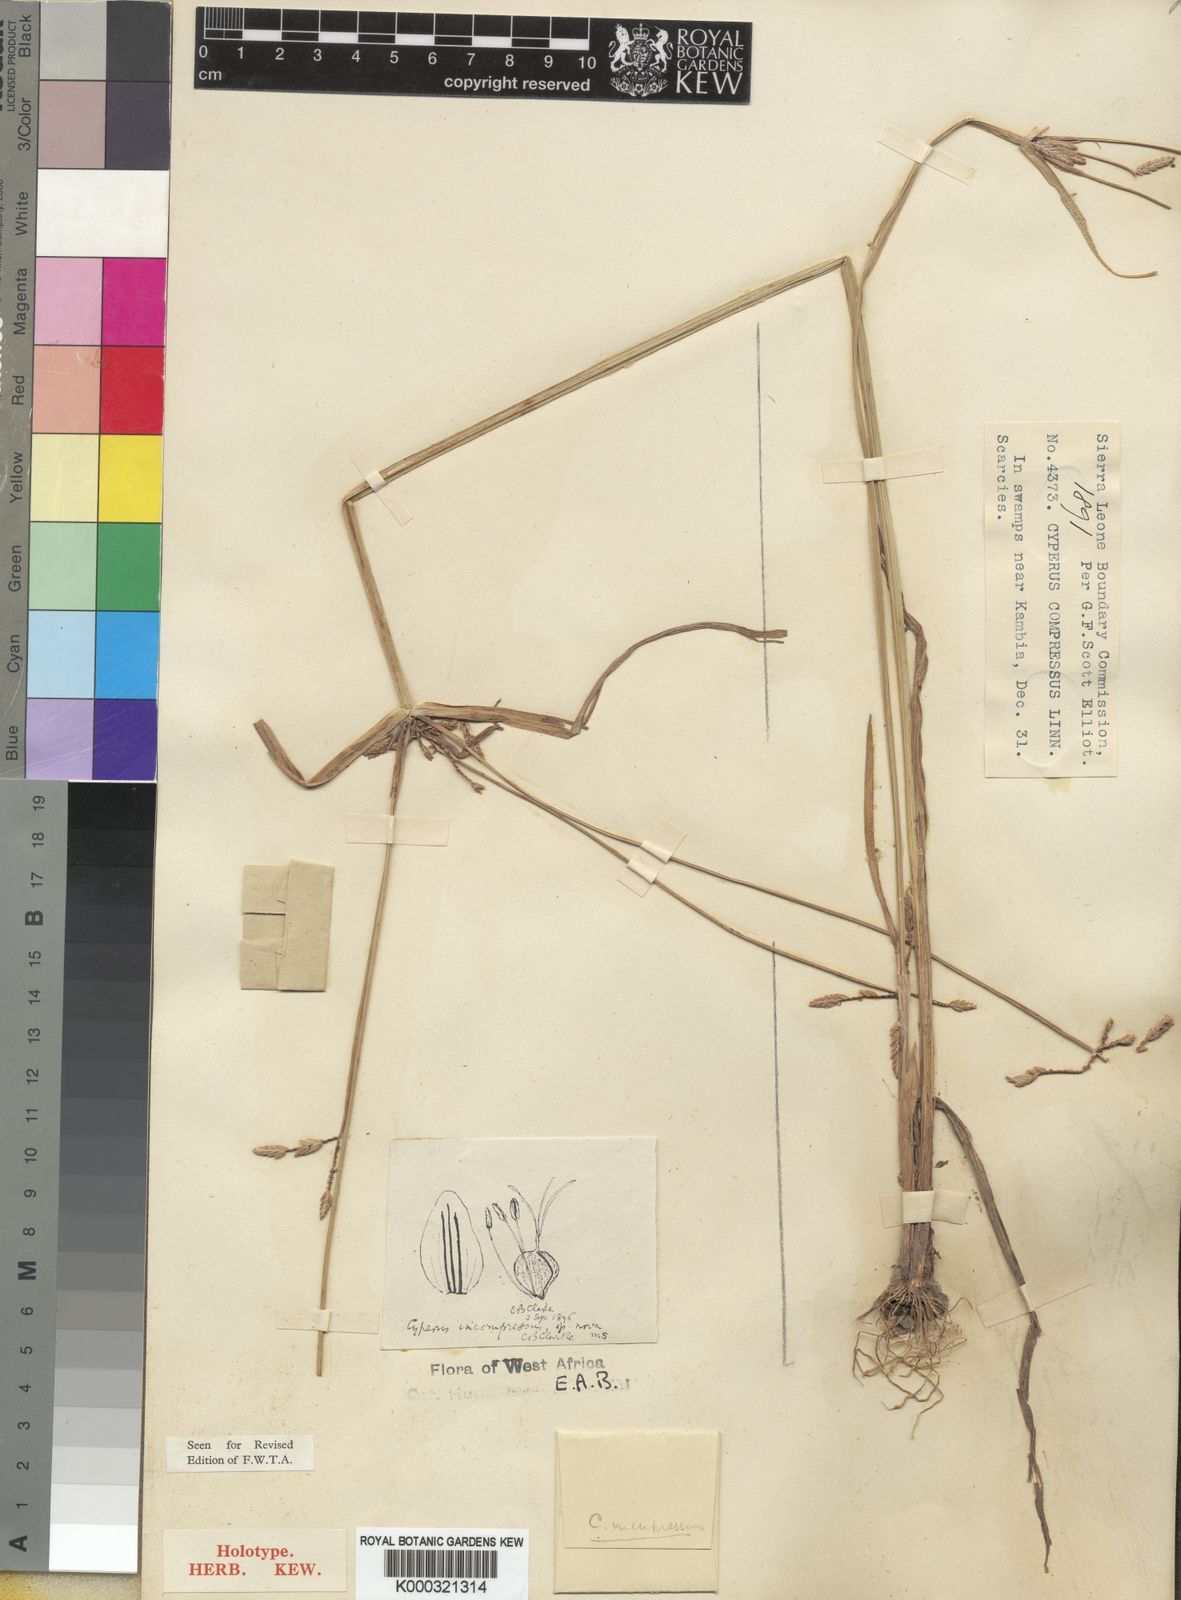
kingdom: Plantae
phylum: Tracheophyta
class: Liliopsida
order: Poales
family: Cyperaceae
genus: Cyperus
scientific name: Cyperus incompressus
